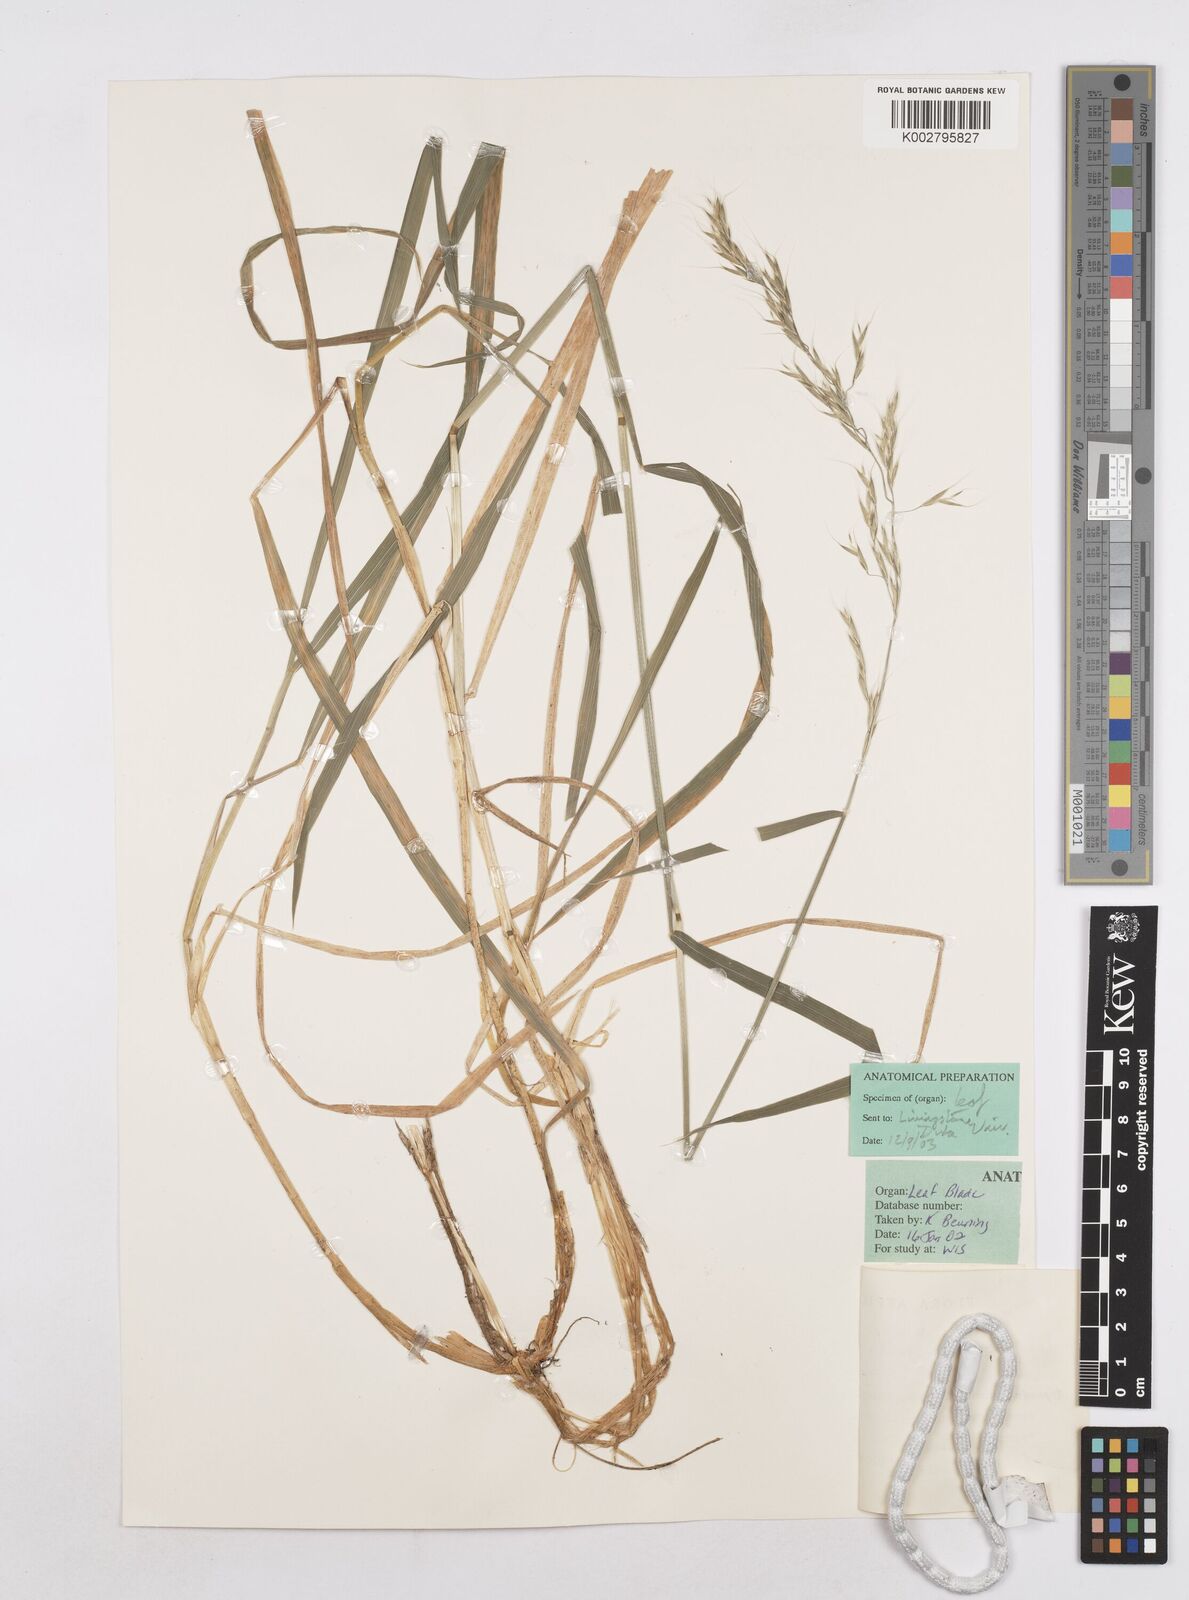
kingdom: Plantae
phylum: Tracheophyta
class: Liliopsida
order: Poales
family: Poaceae
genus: Trisetopsis
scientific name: Trisetopsis milanjiana
